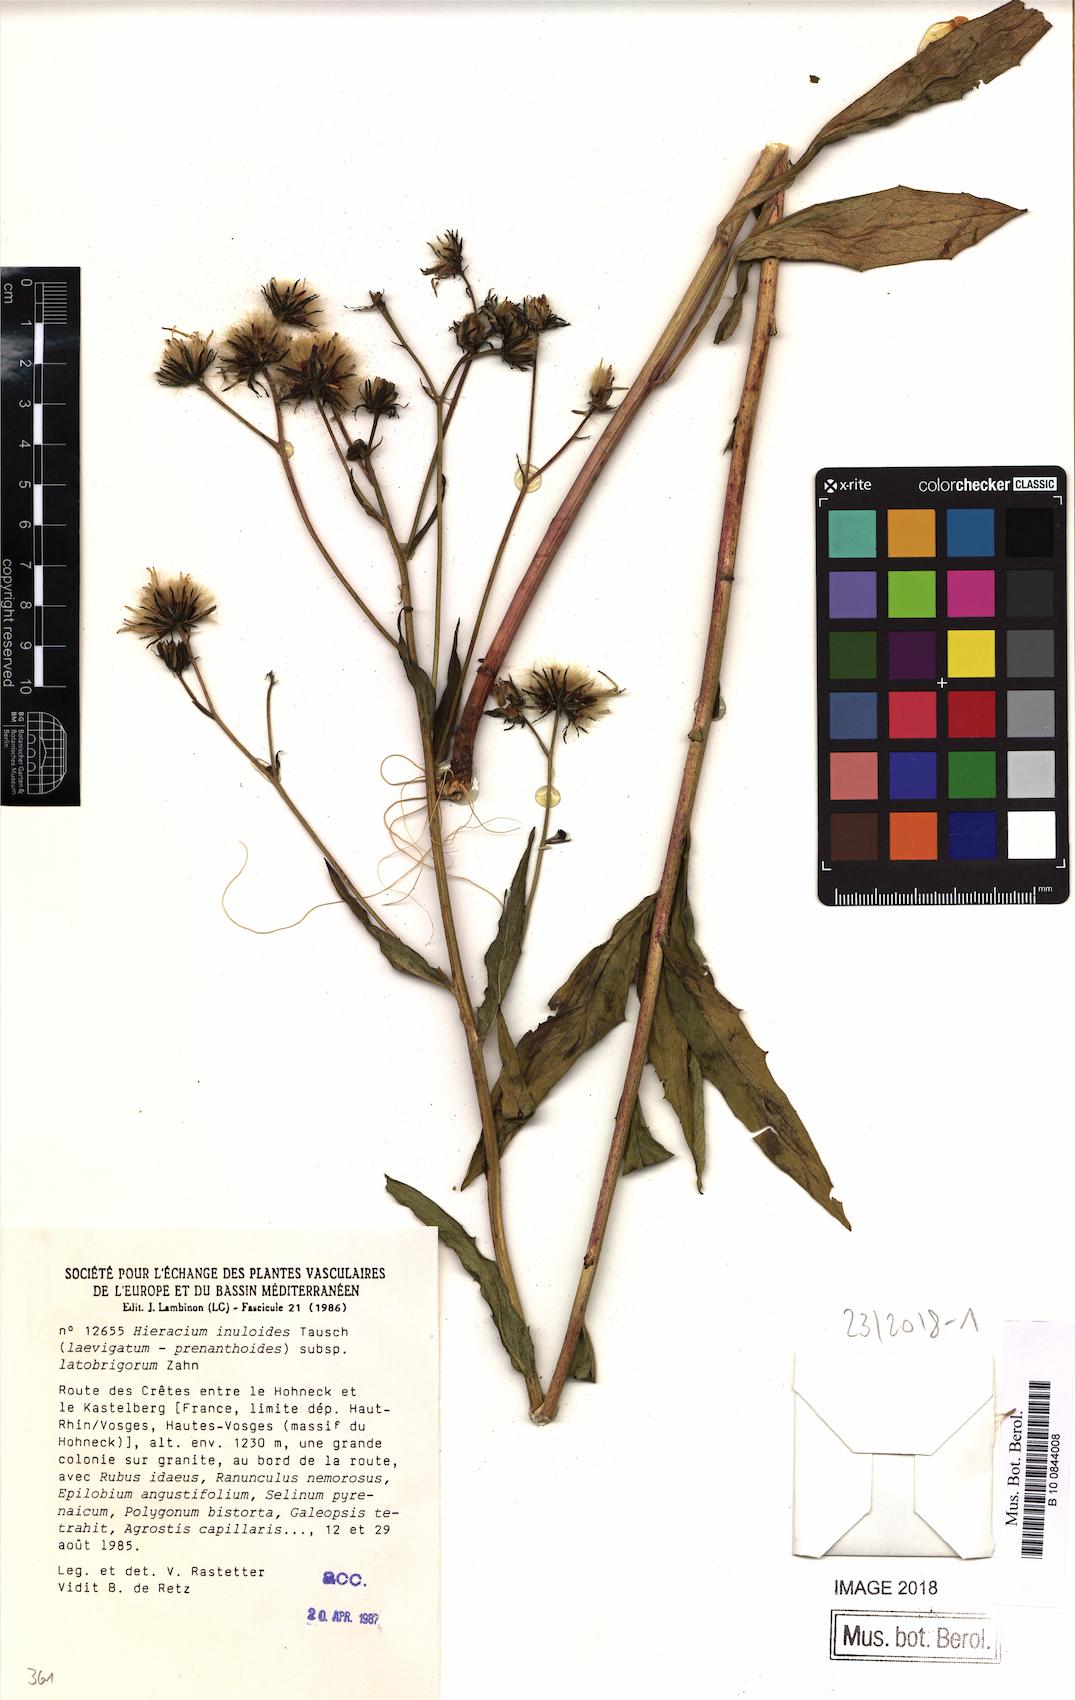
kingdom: Plantae
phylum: Tracheophyta
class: Magnoliopsida
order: Asterales
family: Asteraceae
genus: Hieracium
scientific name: Hieracium inuloides
